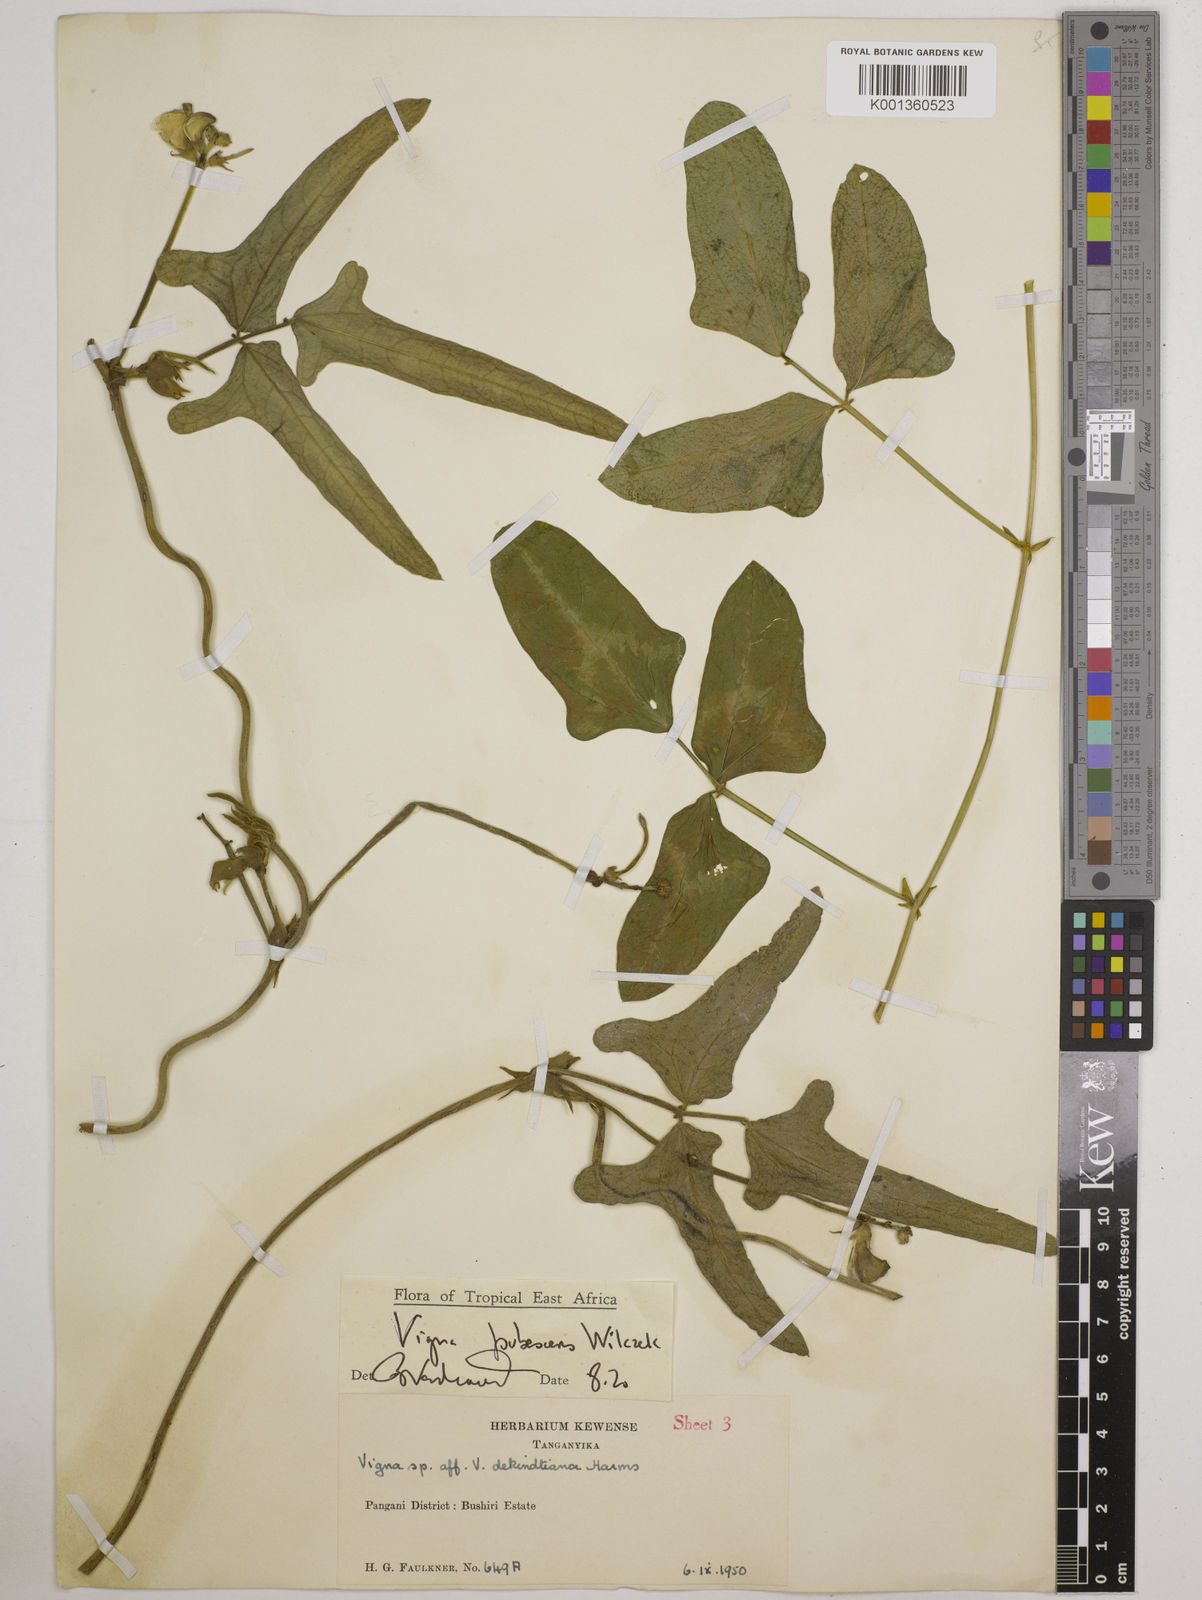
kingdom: Plantae
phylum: Tracheophyta
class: Magnoliopsida
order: Fabales
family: Fabaceae
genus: Vigna
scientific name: Vigna unguiculata
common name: Cowpea
